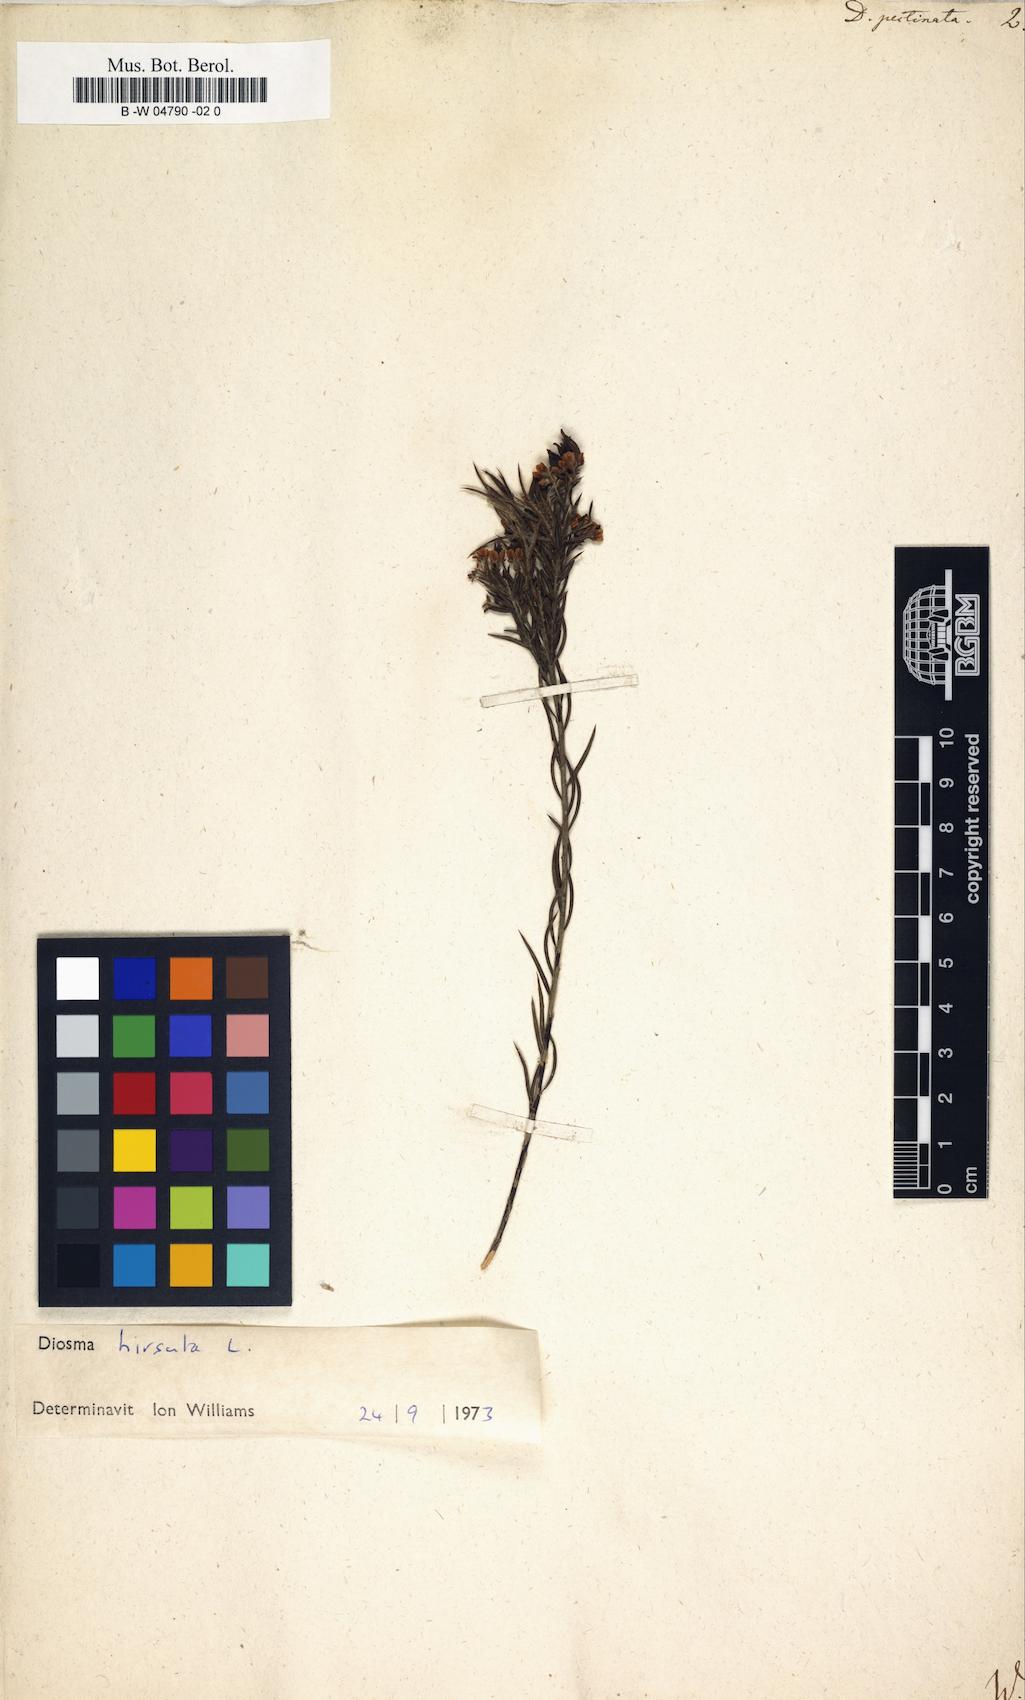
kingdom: Plantae
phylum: Tracheophyta
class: Magnoliopsida
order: Sapindales
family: Rutaceae
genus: Diosma
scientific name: Diosma hirsuta
